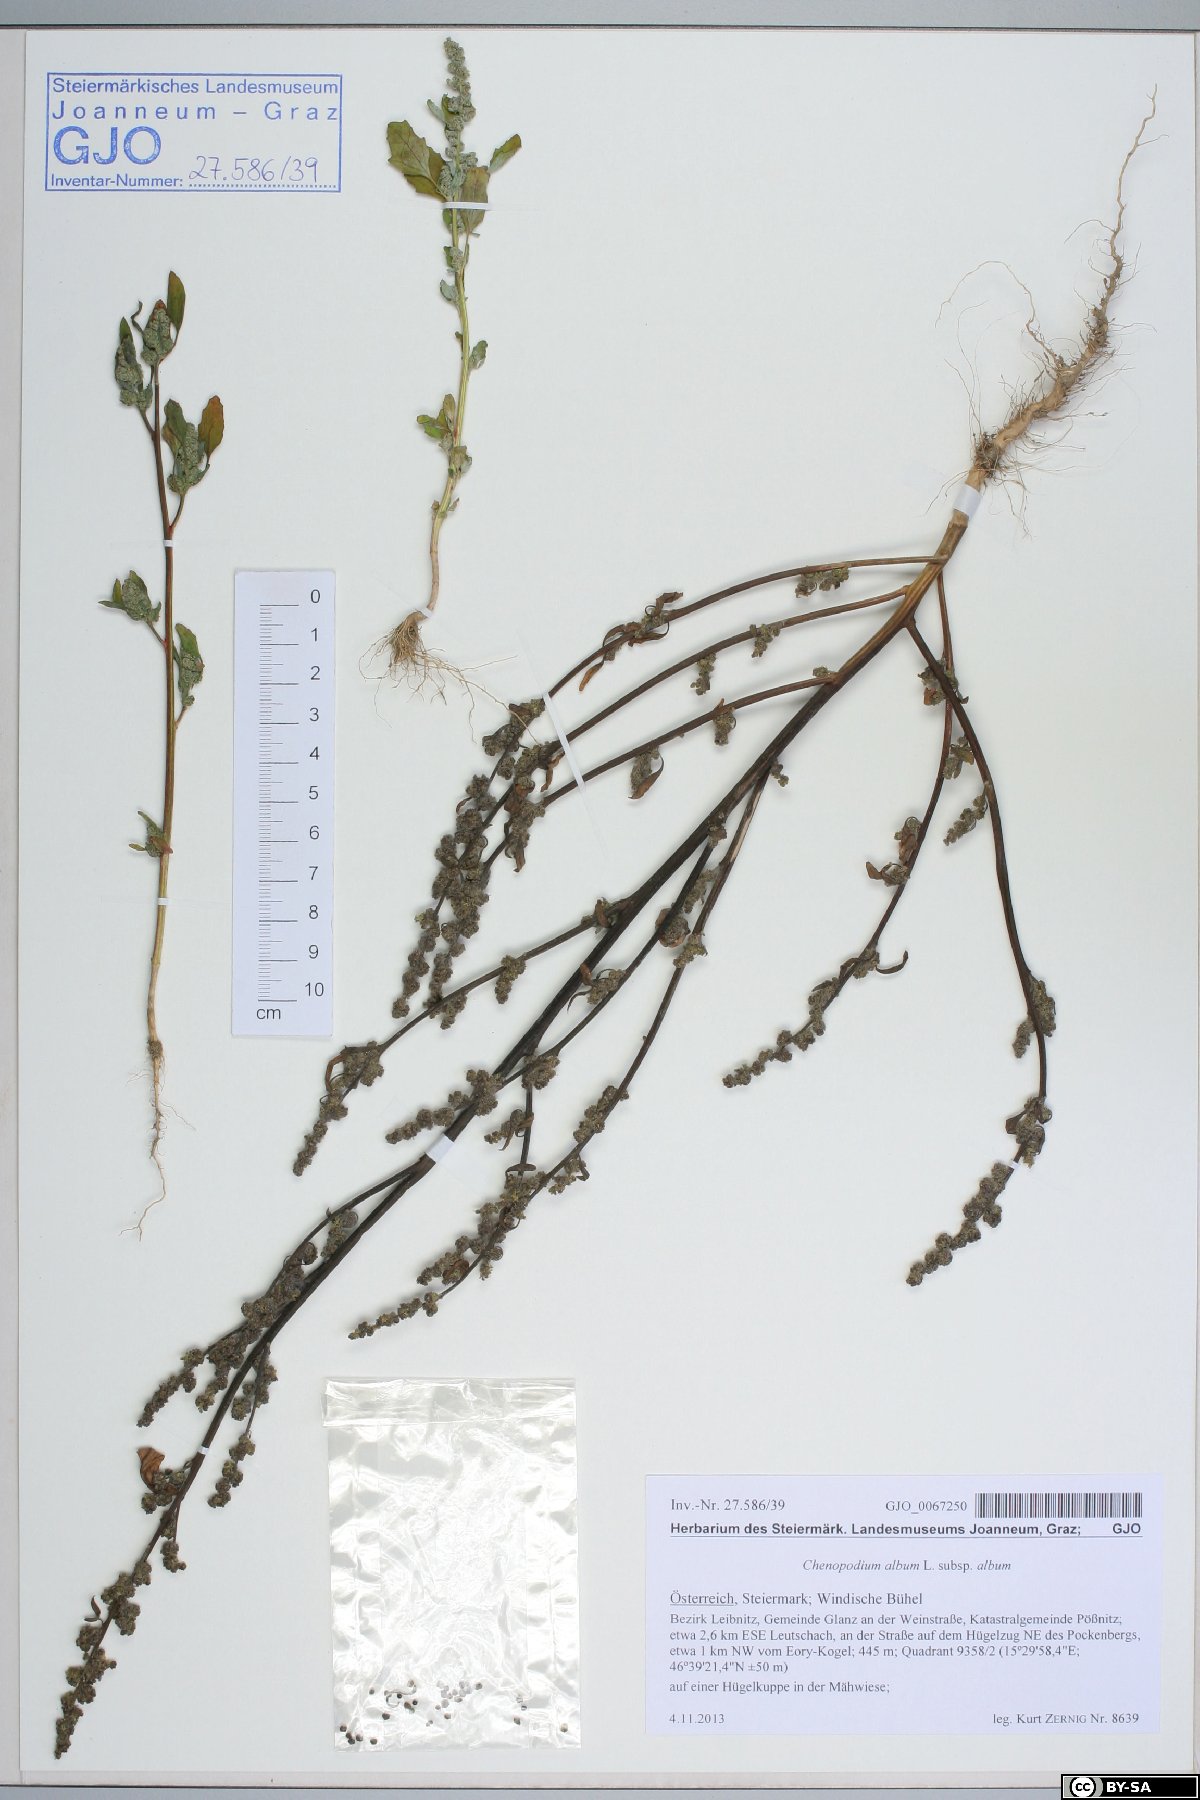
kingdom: Plantae
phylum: Tracheophyta
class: Magnoliopsida
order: Caryophyllales
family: Amaranthaceae
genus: Chenopodium
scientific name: Chenopodium album
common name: Fat-hen
